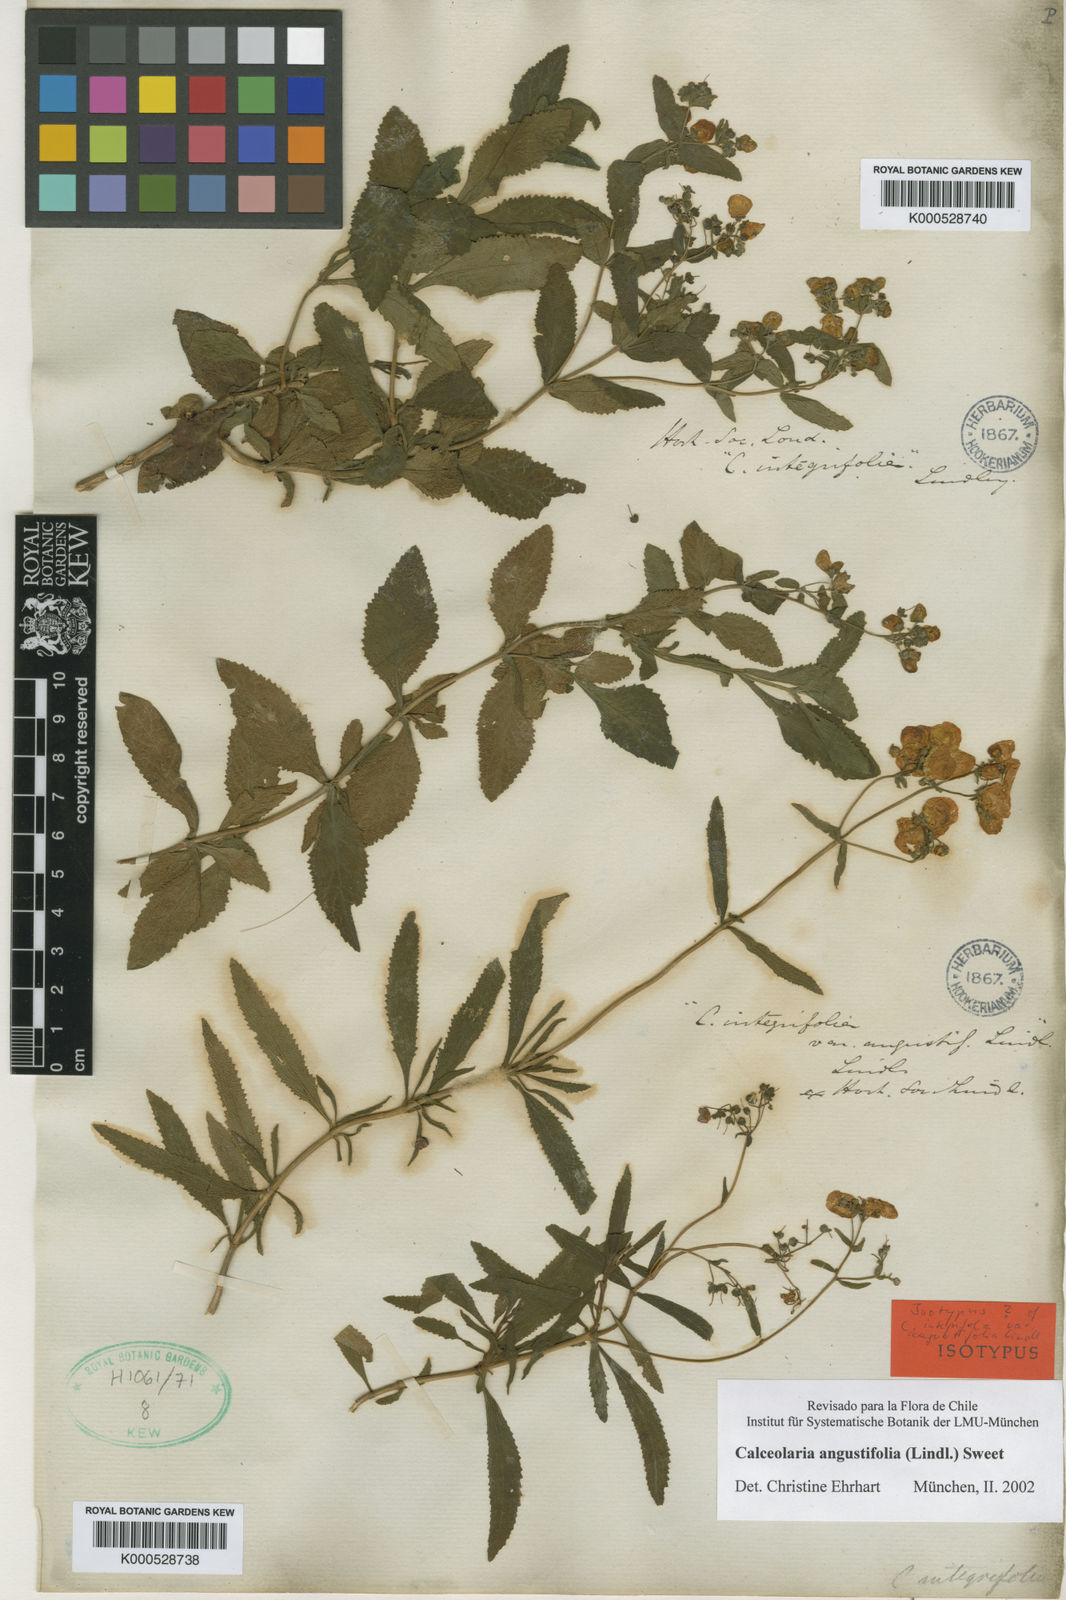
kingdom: Plantae
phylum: Tracheophyta
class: Magnoliopsida
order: Lamiales
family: Calceolariaceae
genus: Calceolaria
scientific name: Calceolaria angustifolia
